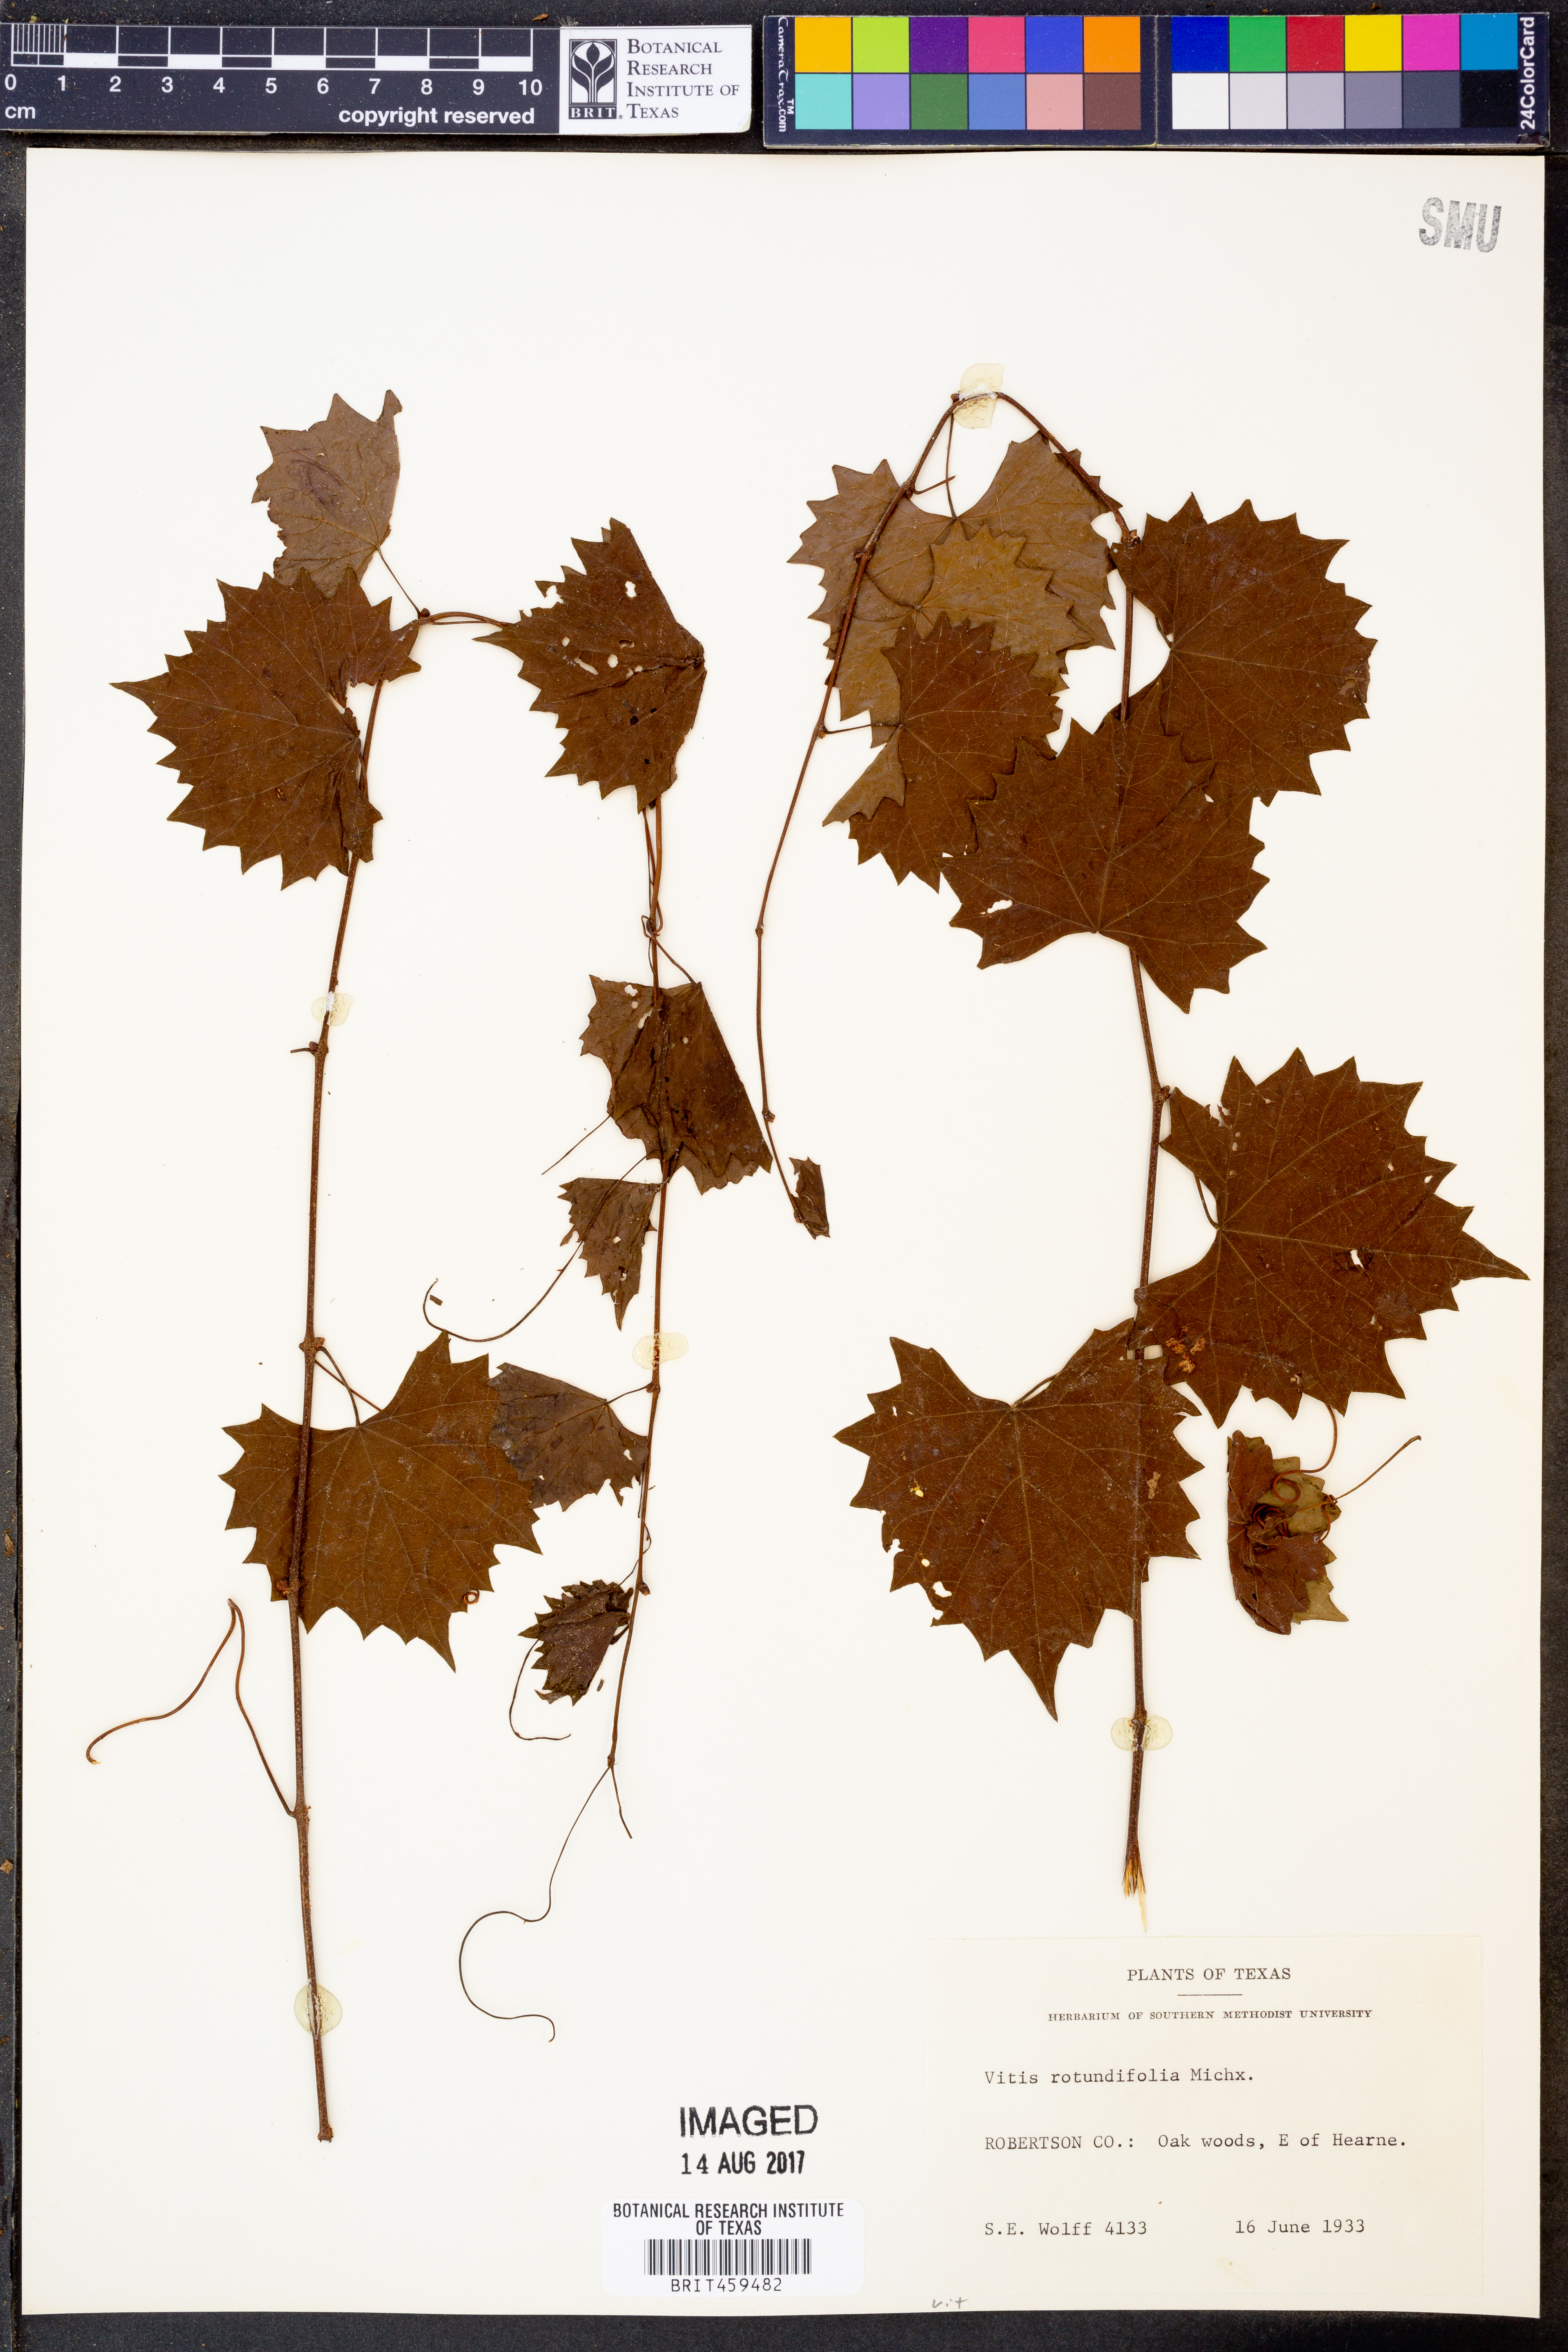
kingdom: Plantae
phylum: Tracheophyta
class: Magnoliopsida
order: Vitales
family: Vitaceae
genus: Vitis
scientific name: Vitis rotundifolia
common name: Muscadine grape
